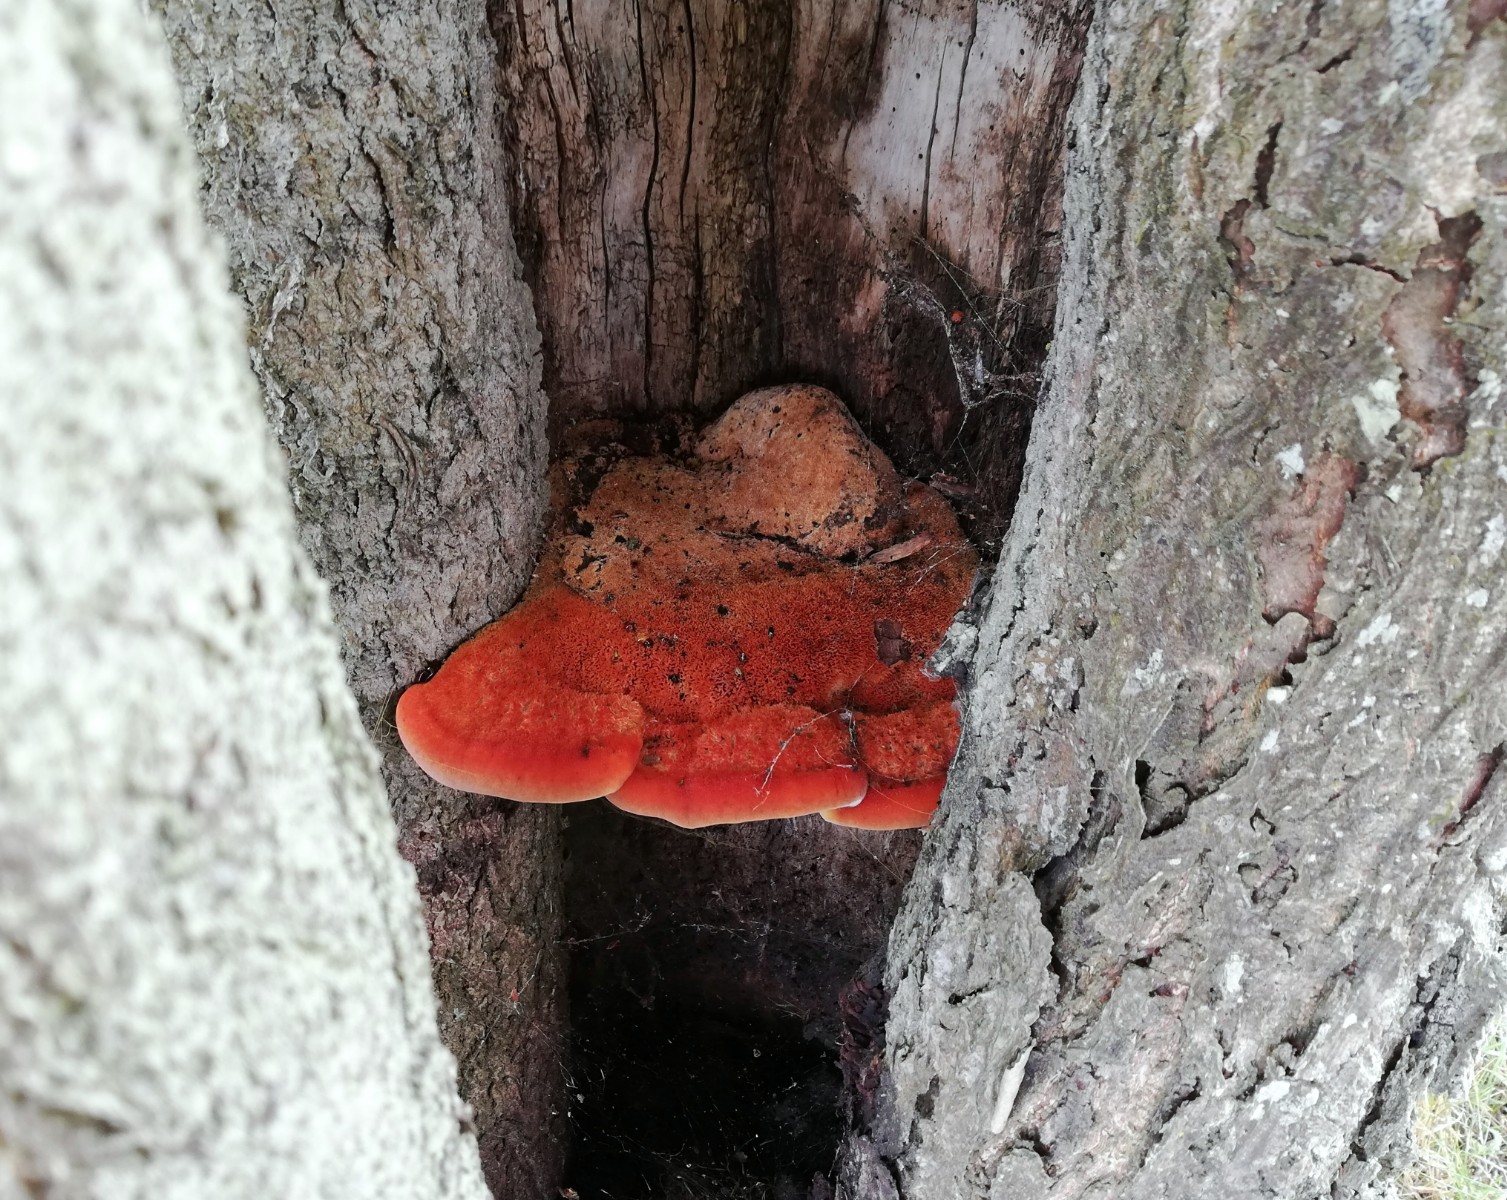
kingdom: Fungi
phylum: Basidiomycota
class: Agaricomycetes
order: Hymenochaetales
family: Hymenochaetaceae
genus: Inonotus
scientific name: Inonotus hispidus
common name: børstehåret spejlporesvamp
